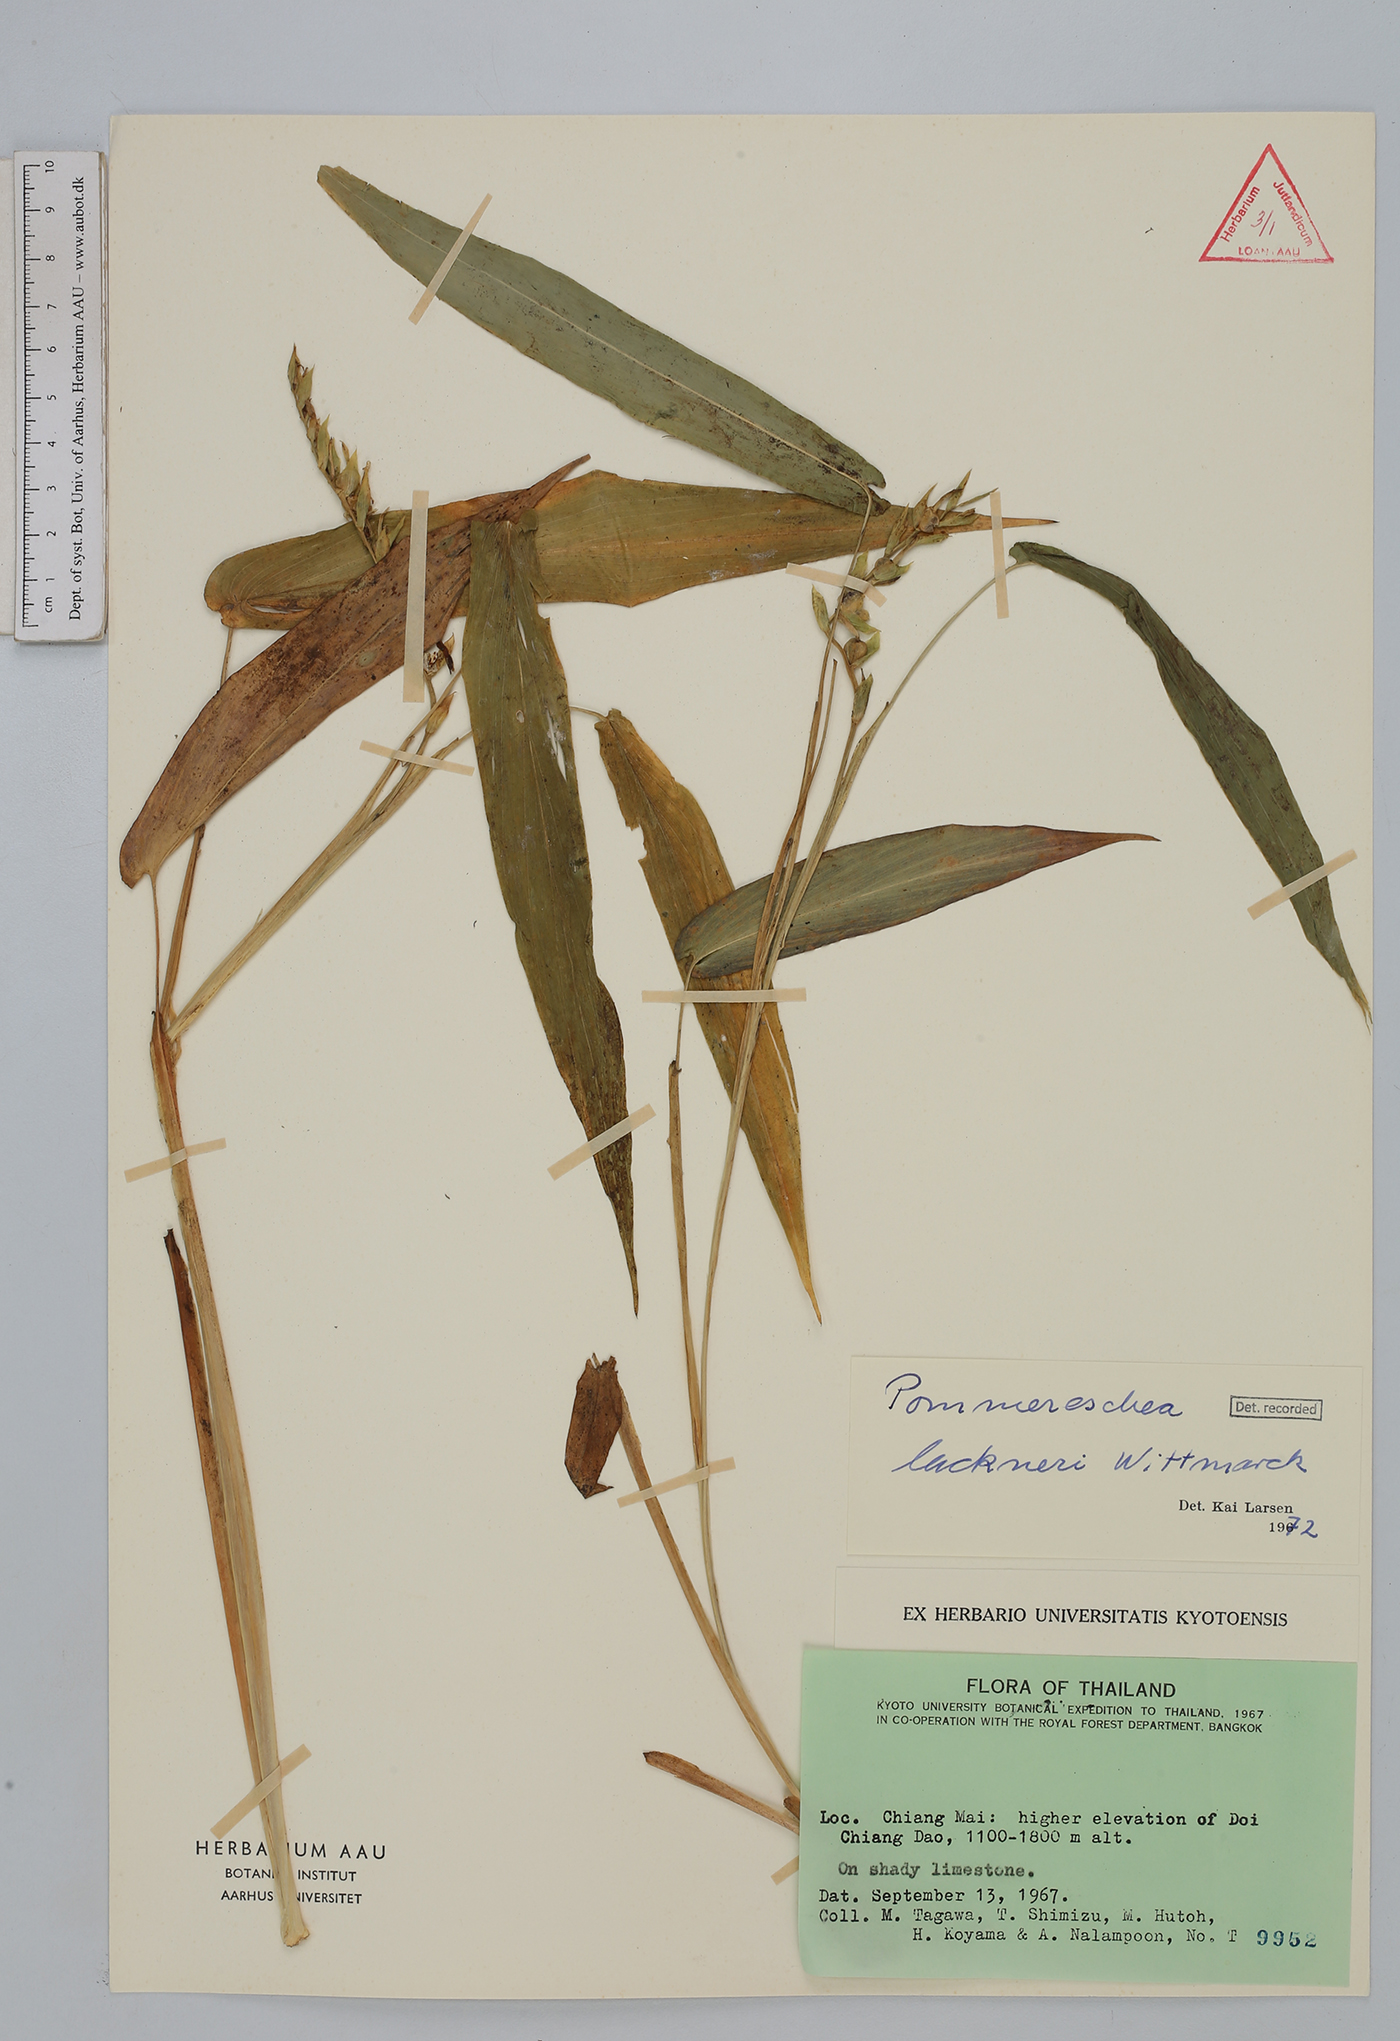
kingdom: Plantae
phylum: Tracheophyta
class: Liliopsida
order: Zingiberales
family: Zingiberaceae
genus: Pommereschea
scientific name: Pommereschea lackneri
